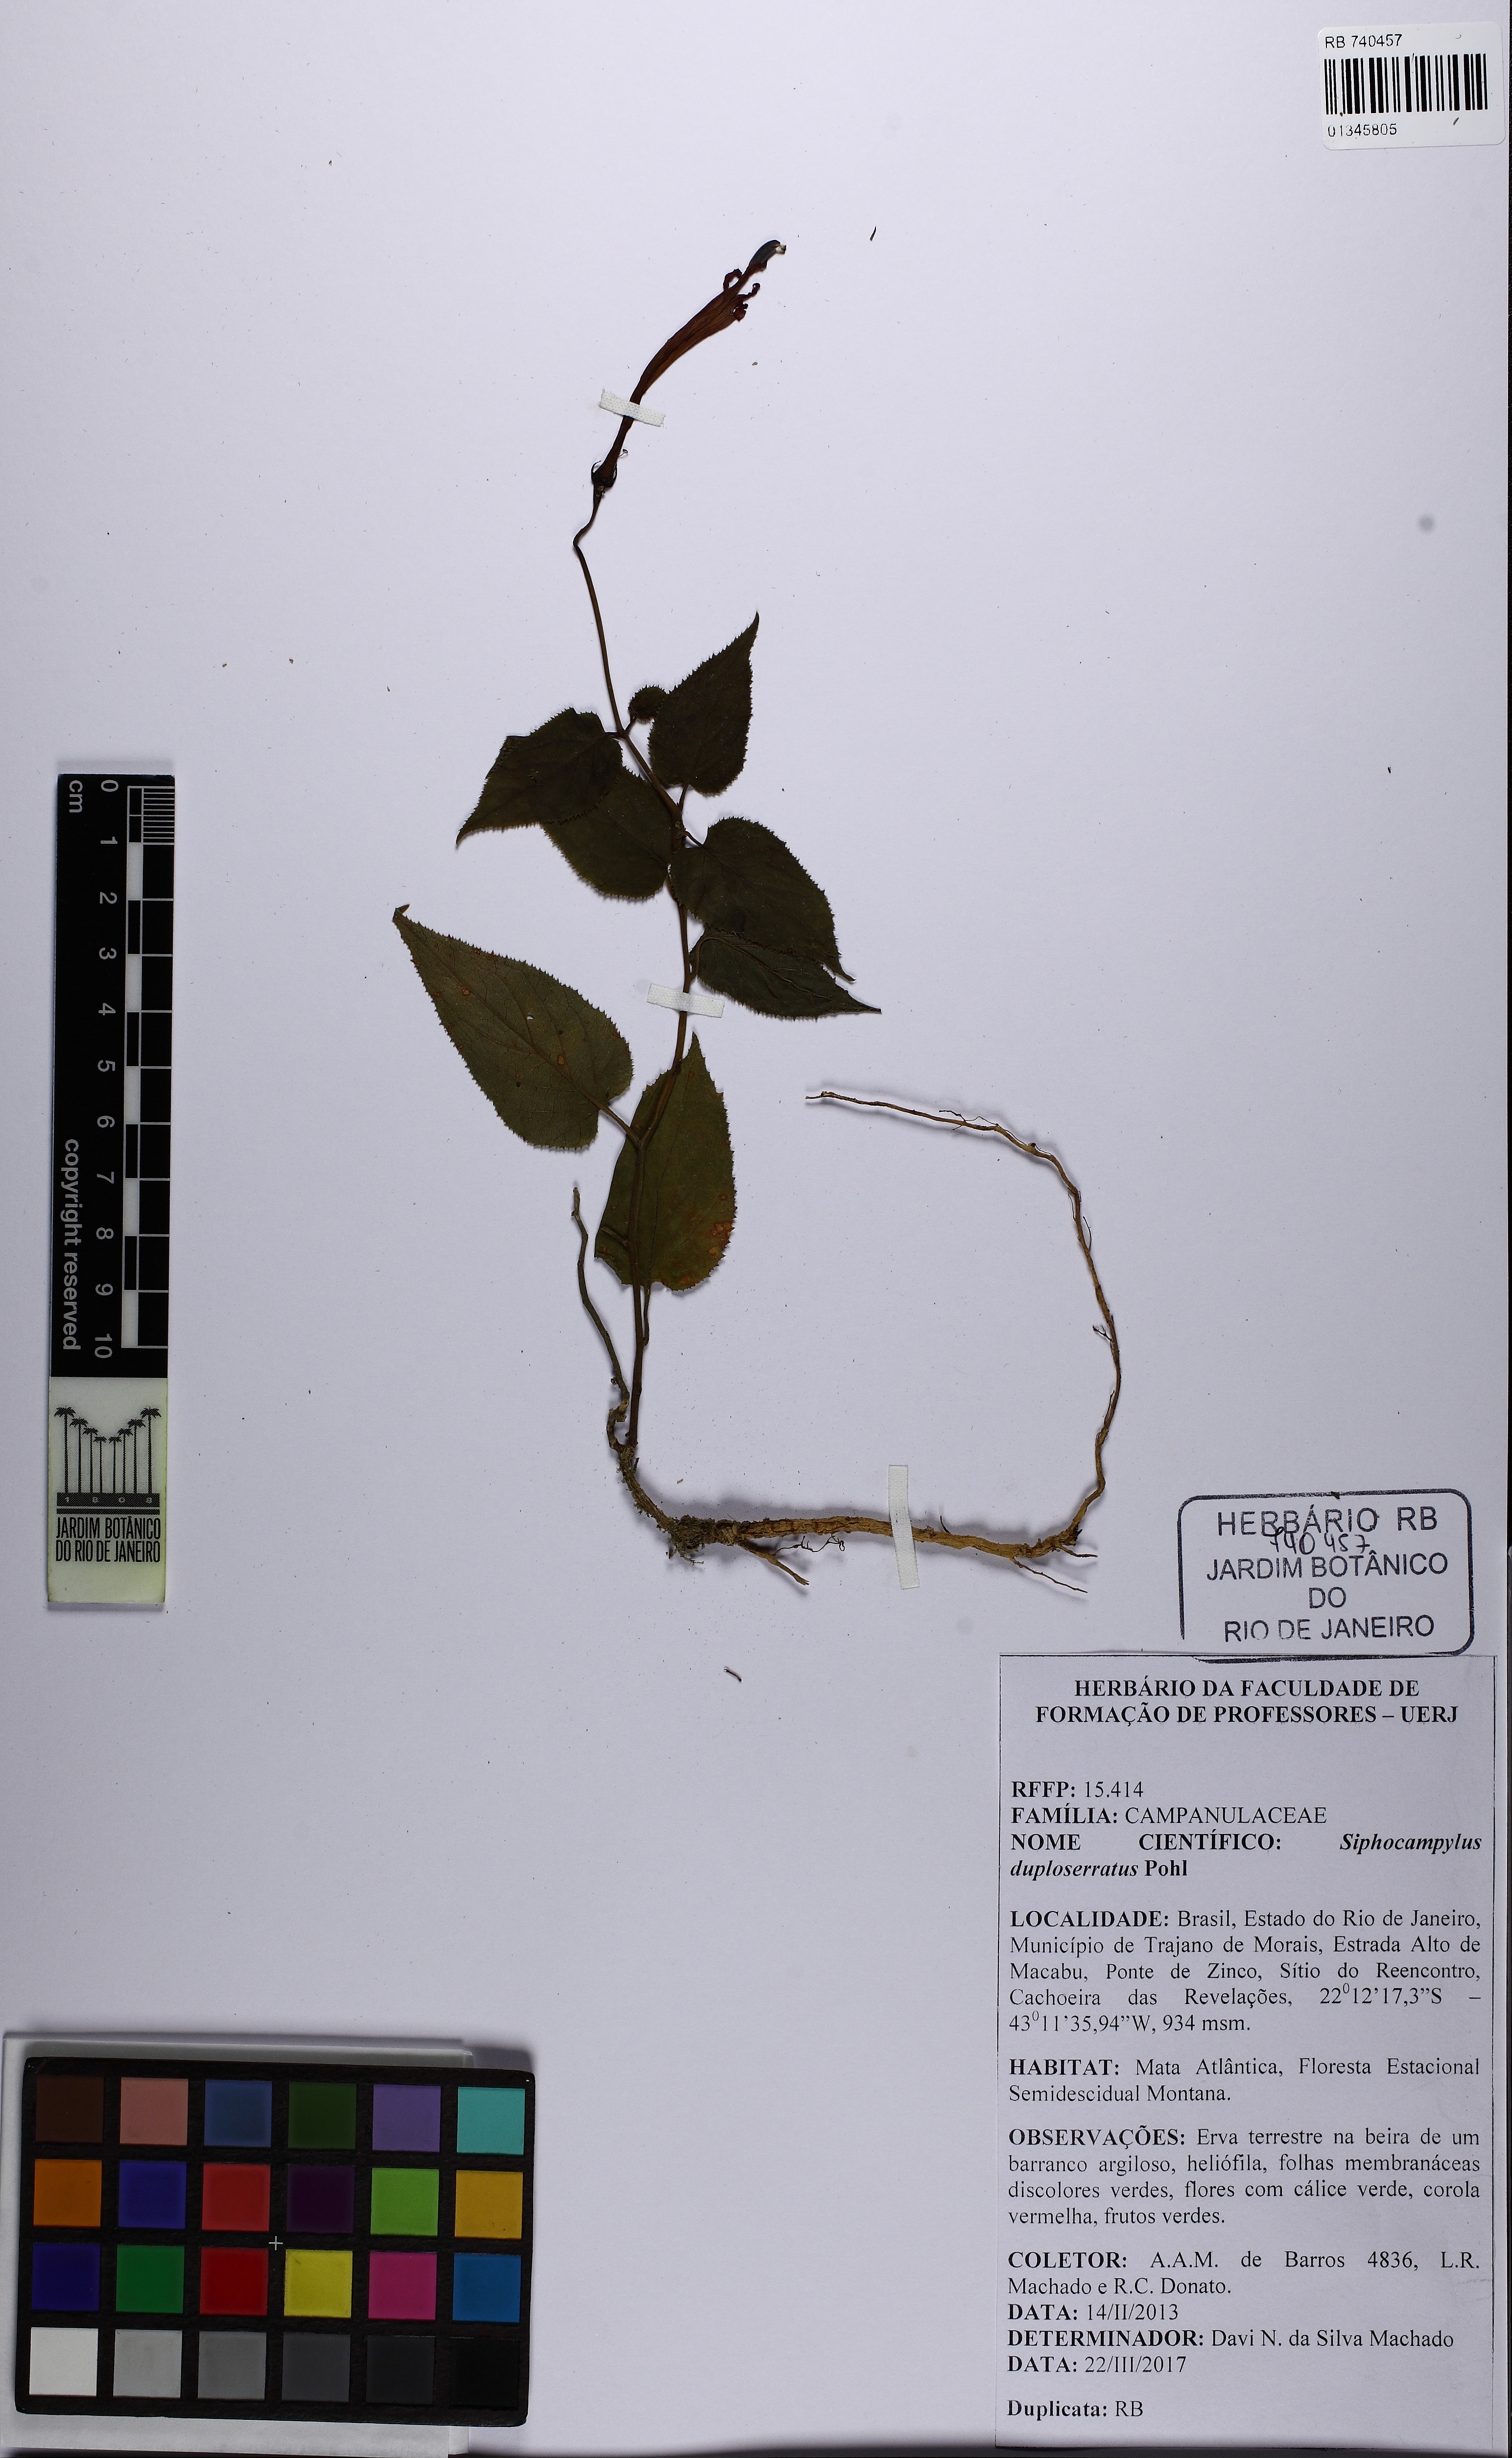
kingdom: Plantae
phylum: Tracheophyta
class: Magnoliopsida
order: Asterales
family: Campanulaceae
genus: Siphocampylus
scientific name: Siphocampylus duploserratus
